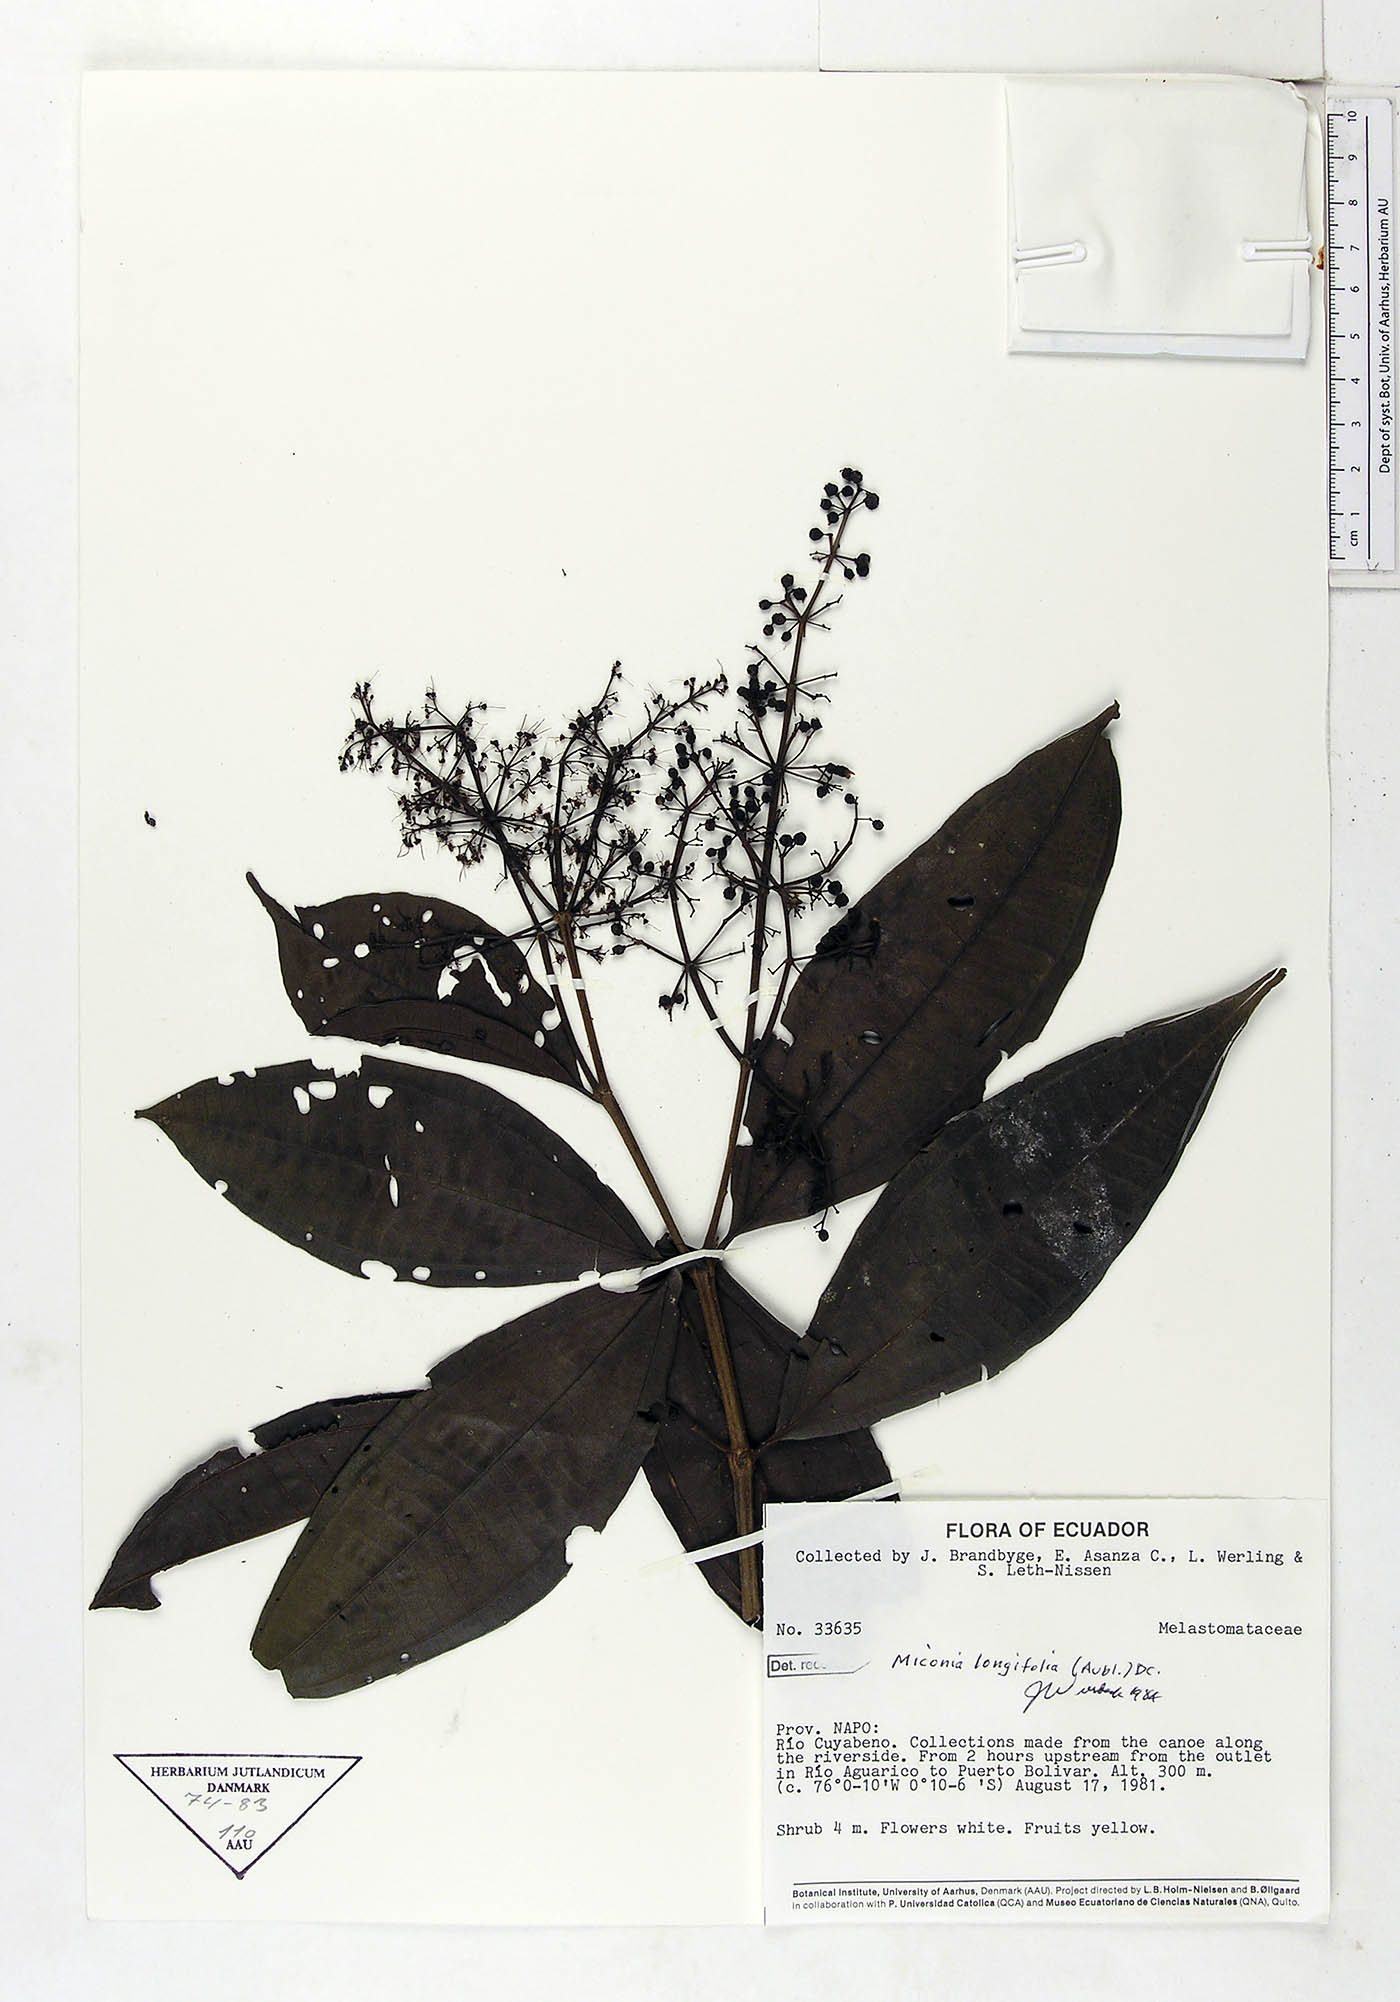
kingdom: Plantae
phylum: Tracheophyta
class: Magnoliopsida
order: Myrtales
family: Melastomataceae
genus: Miconia
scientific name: Miconia longifolia
